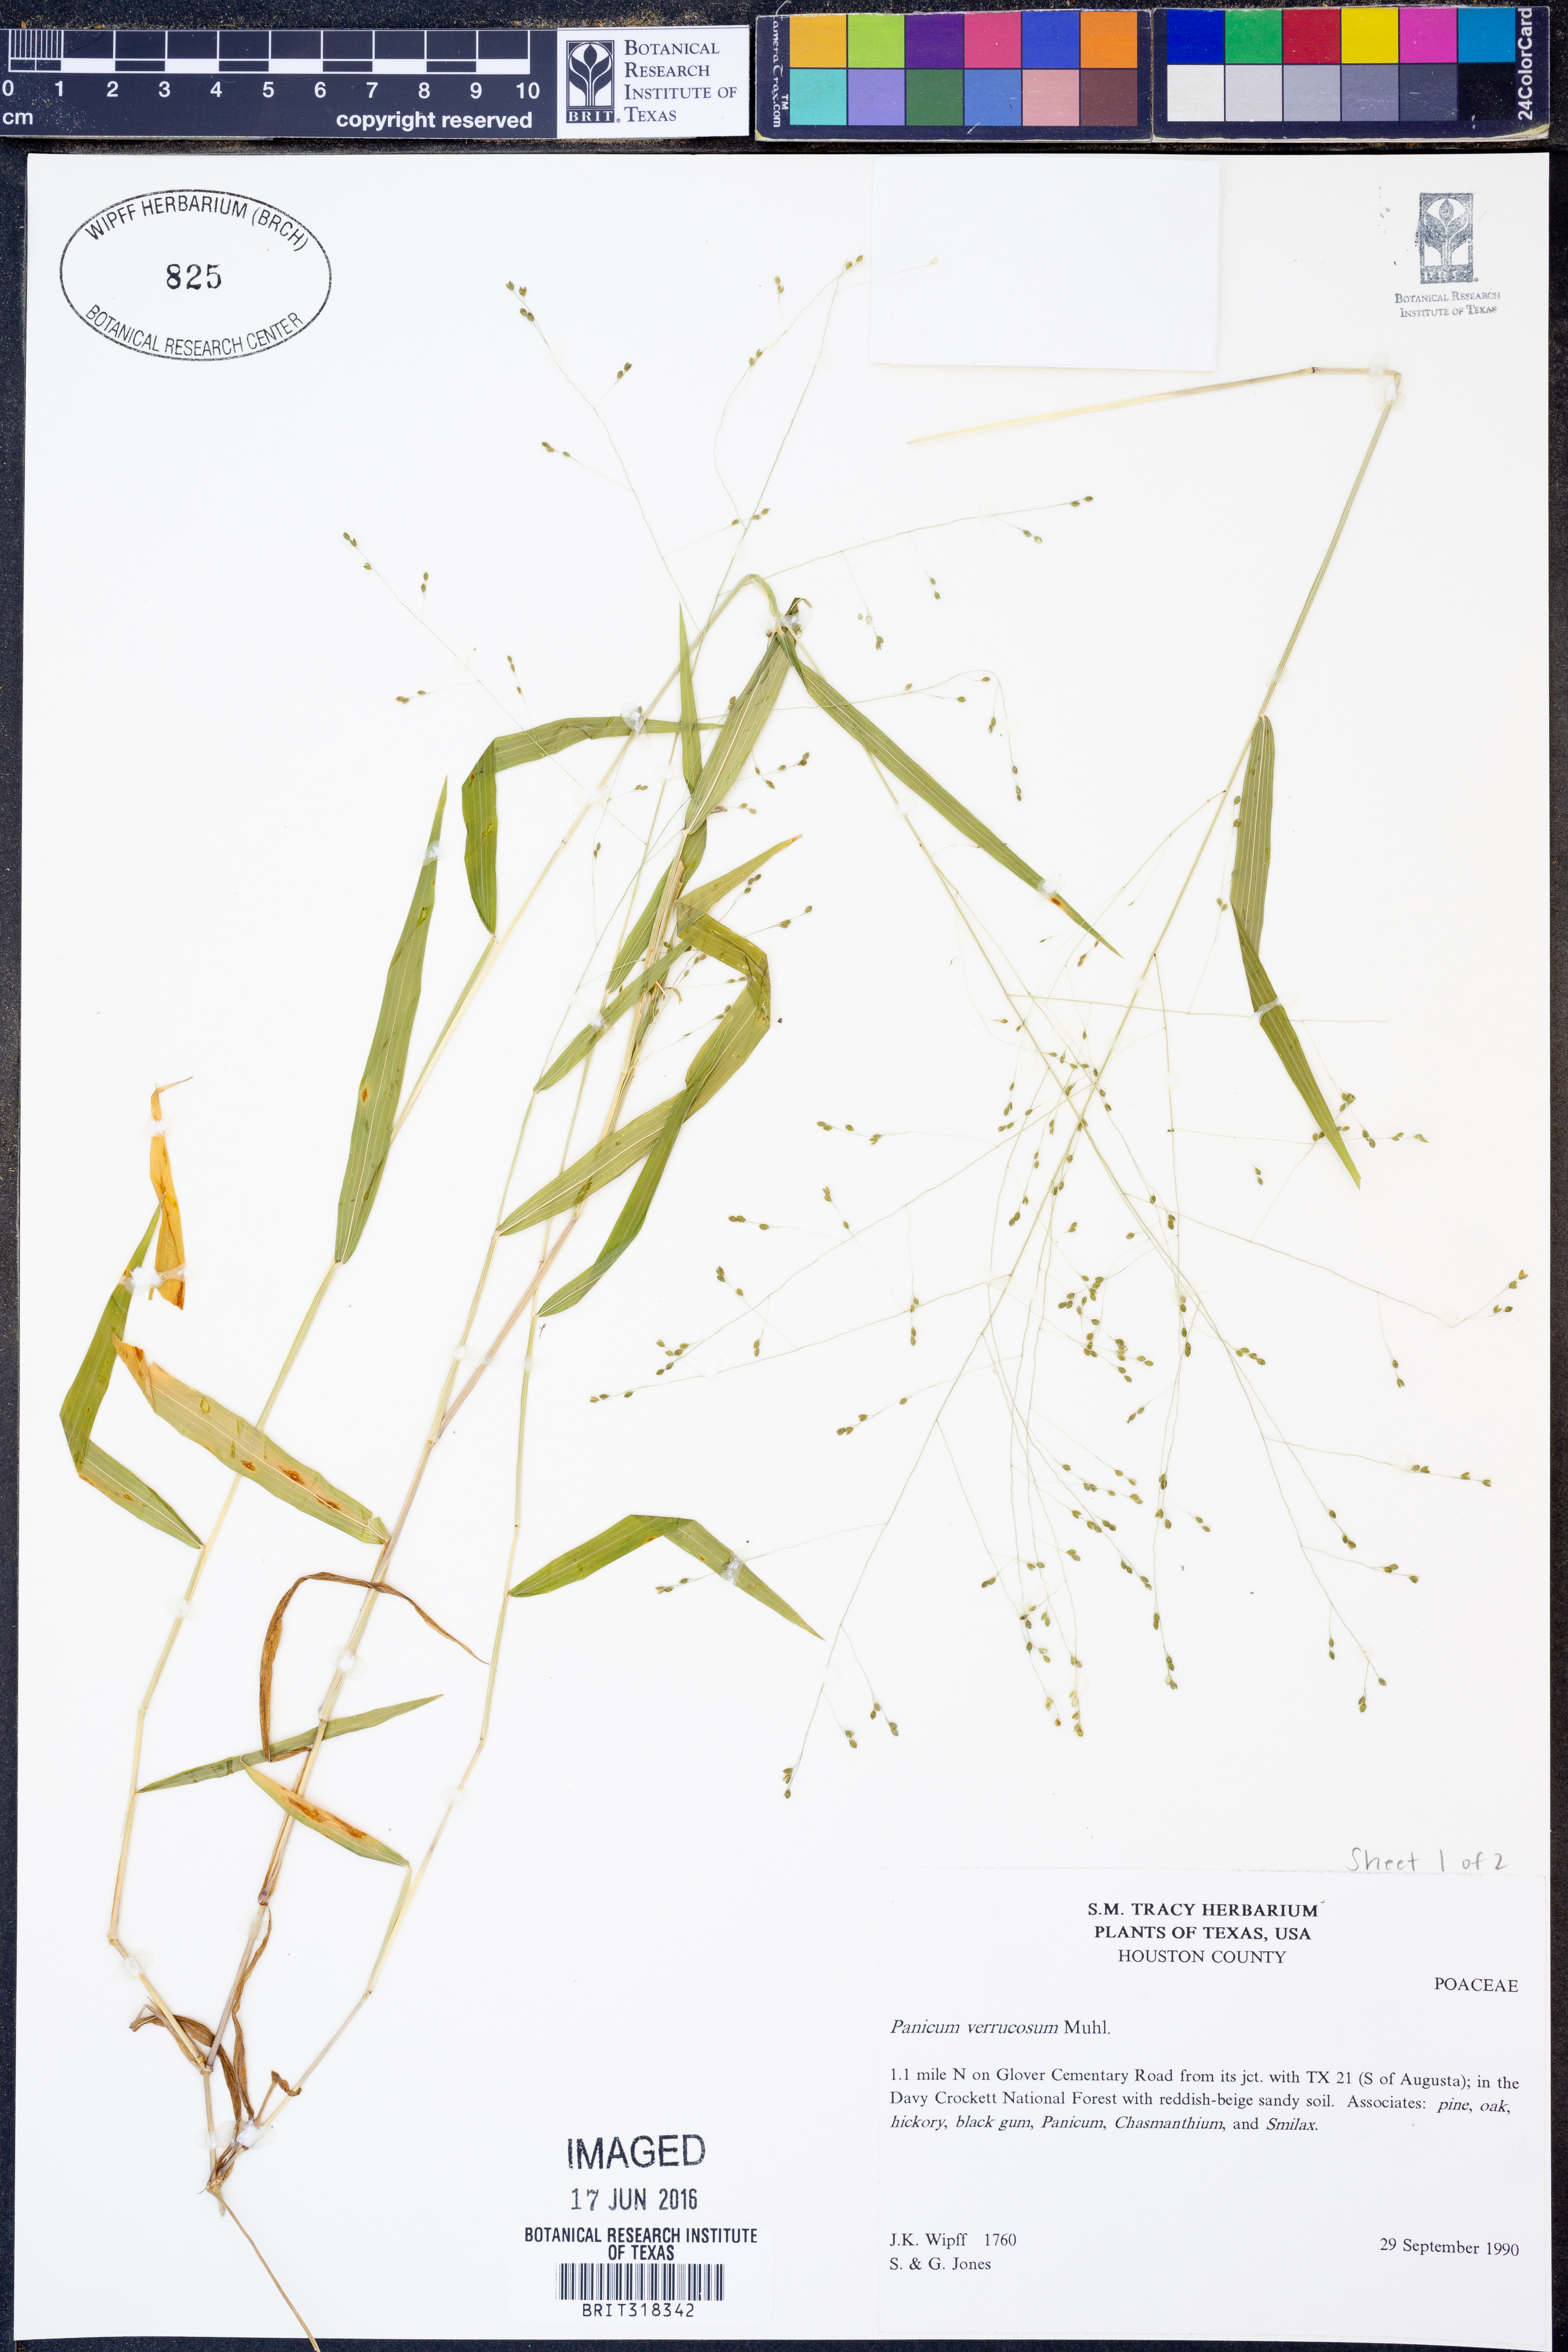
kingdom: Plantae
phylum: Tracheophyta
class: Liliopsida
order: Poales
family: Poaceae
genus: Kellochloa
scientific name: Kellochloa verrucosa
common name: Warty panic grass
